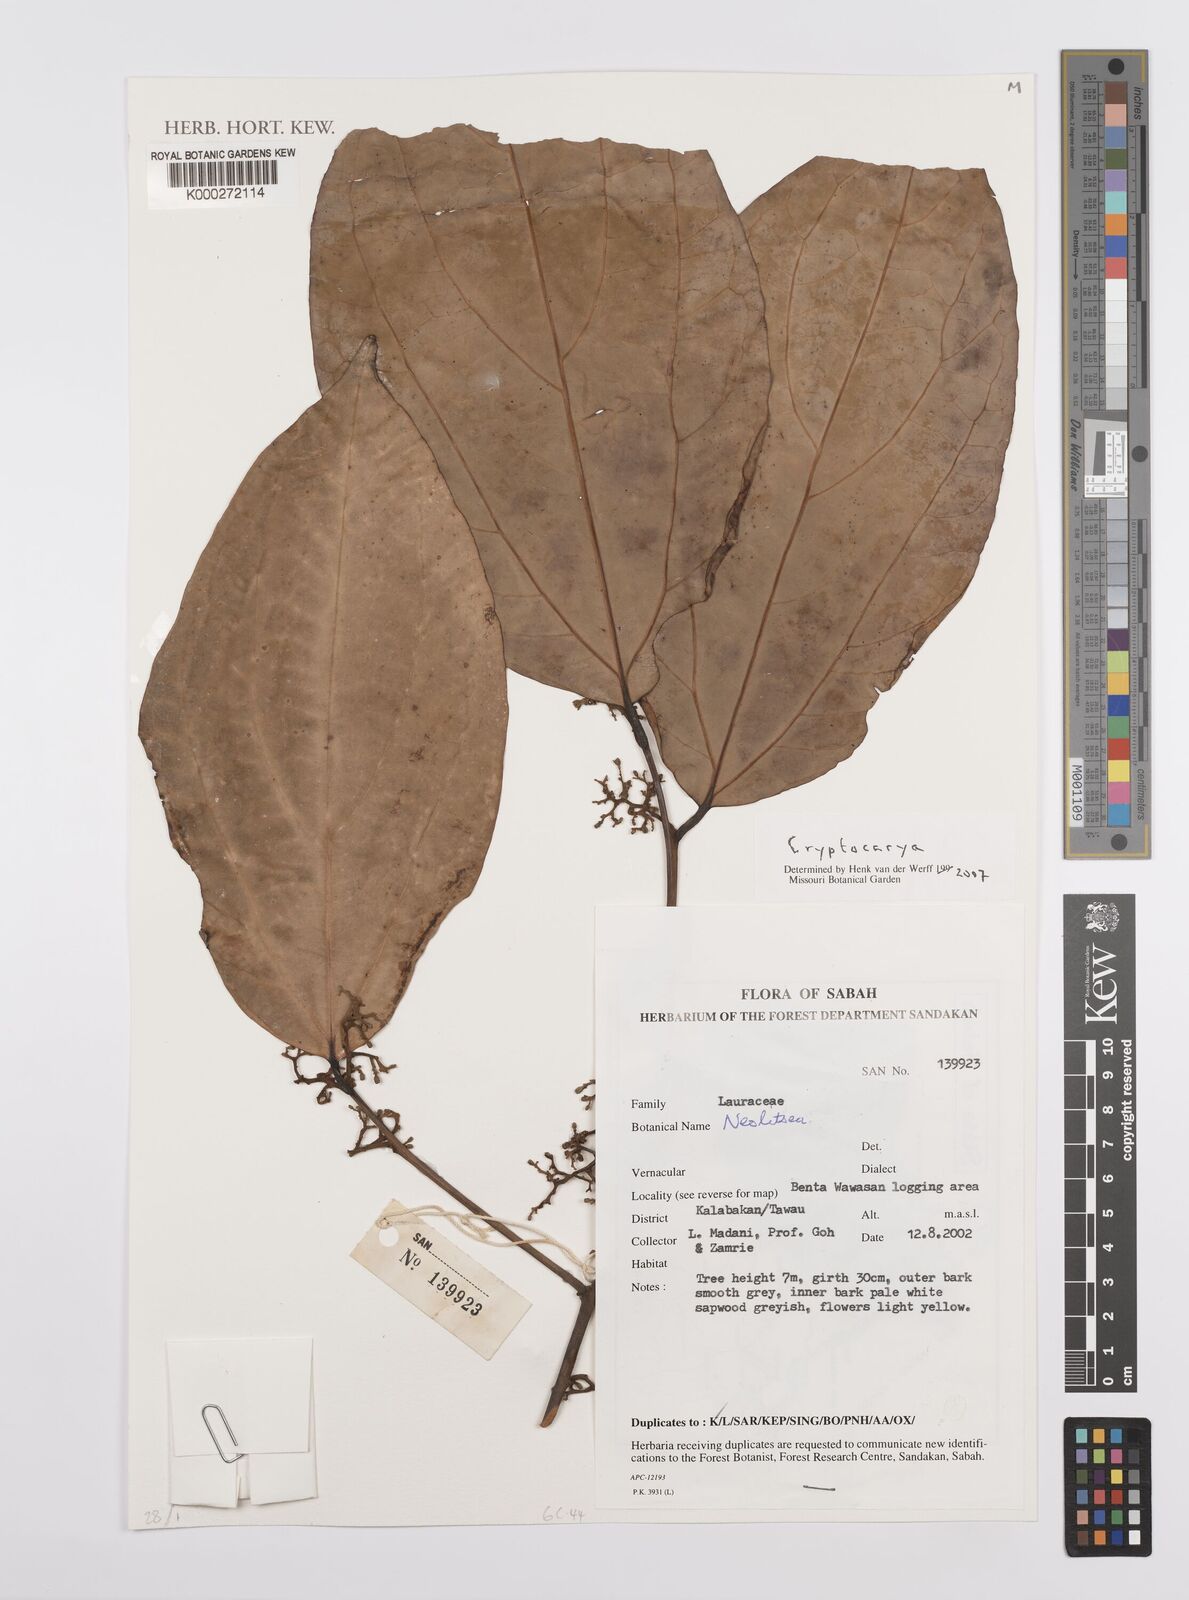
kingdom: Plantae
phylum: Tracheophyta
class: Magnoliopsida
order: Laurales
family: Lauraceae
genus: Cryptocarya
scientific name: Cryptocarya
